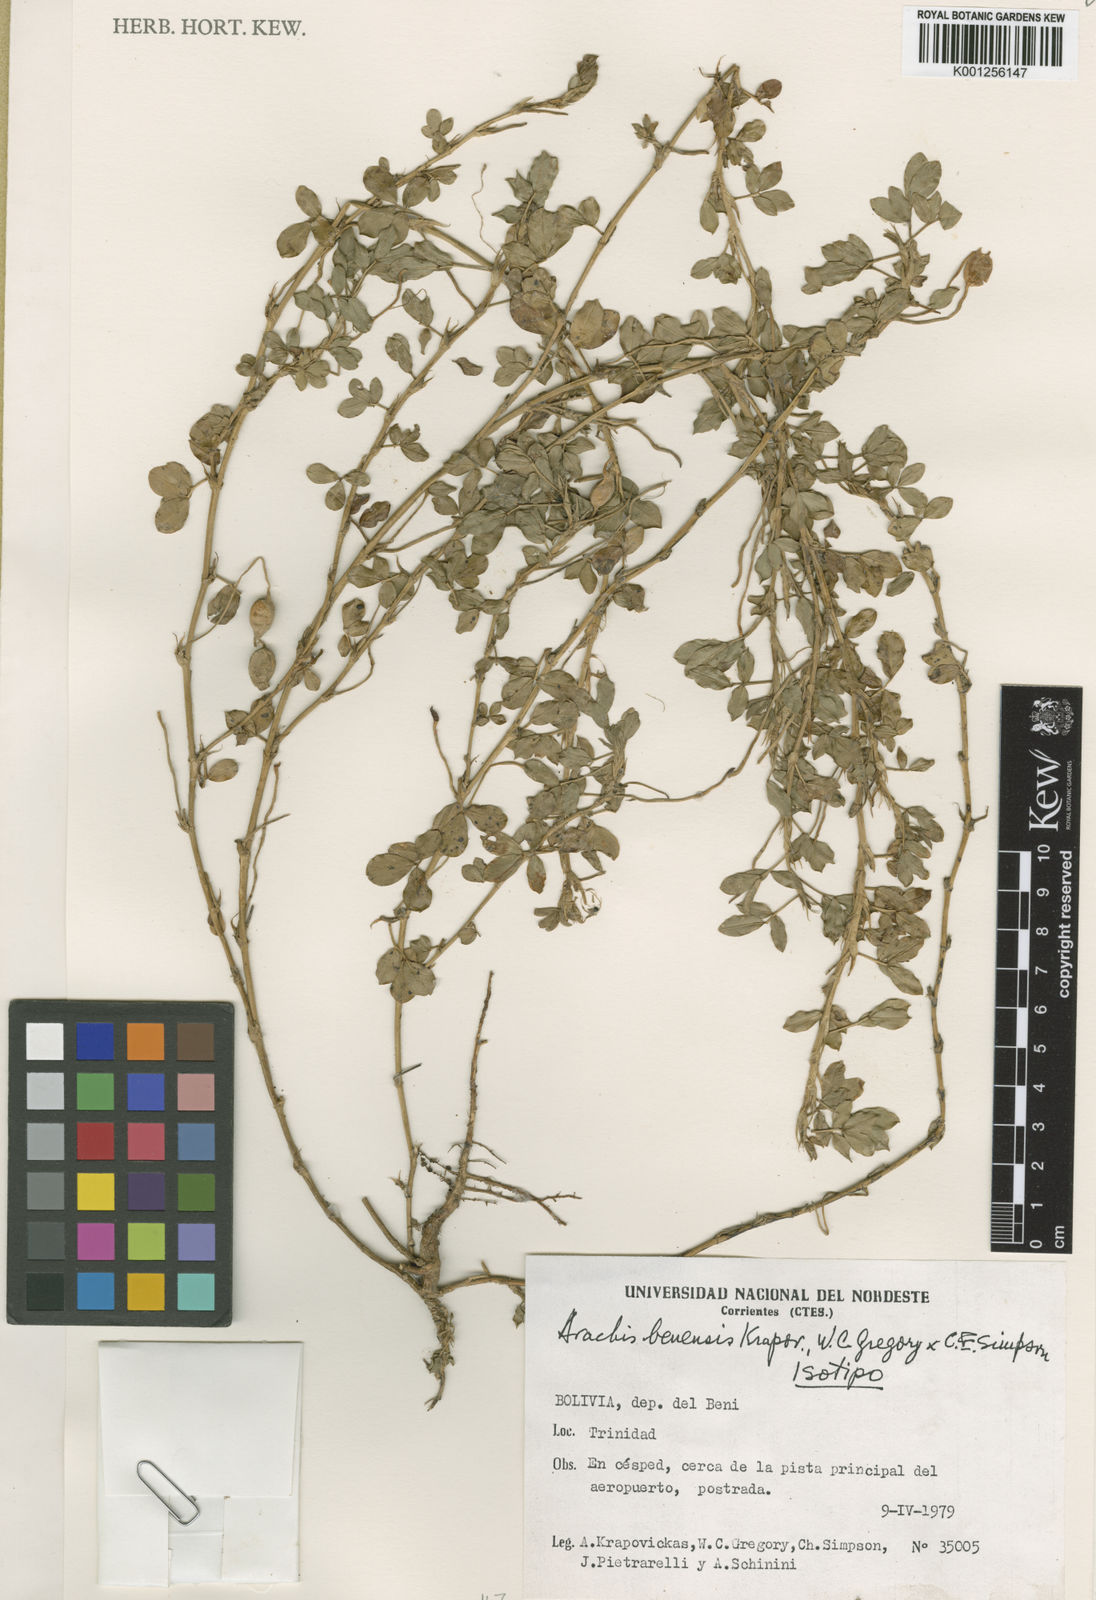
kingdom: Plantae
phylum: Tracheophyta
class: Magnoliopsida
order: Fabales
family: Fabaceae
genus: Arachis
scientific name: Arachis
